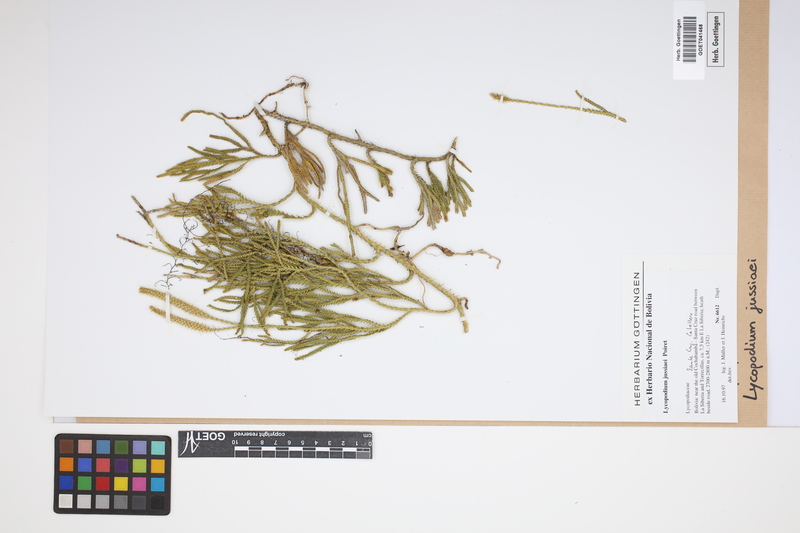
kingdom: Plantae
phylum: Tracheophyta
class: Lycopodiopsida
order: Lycopodiales
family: Lycopodiaceae
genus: Diphasium
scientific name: Diphasium jussiaei
